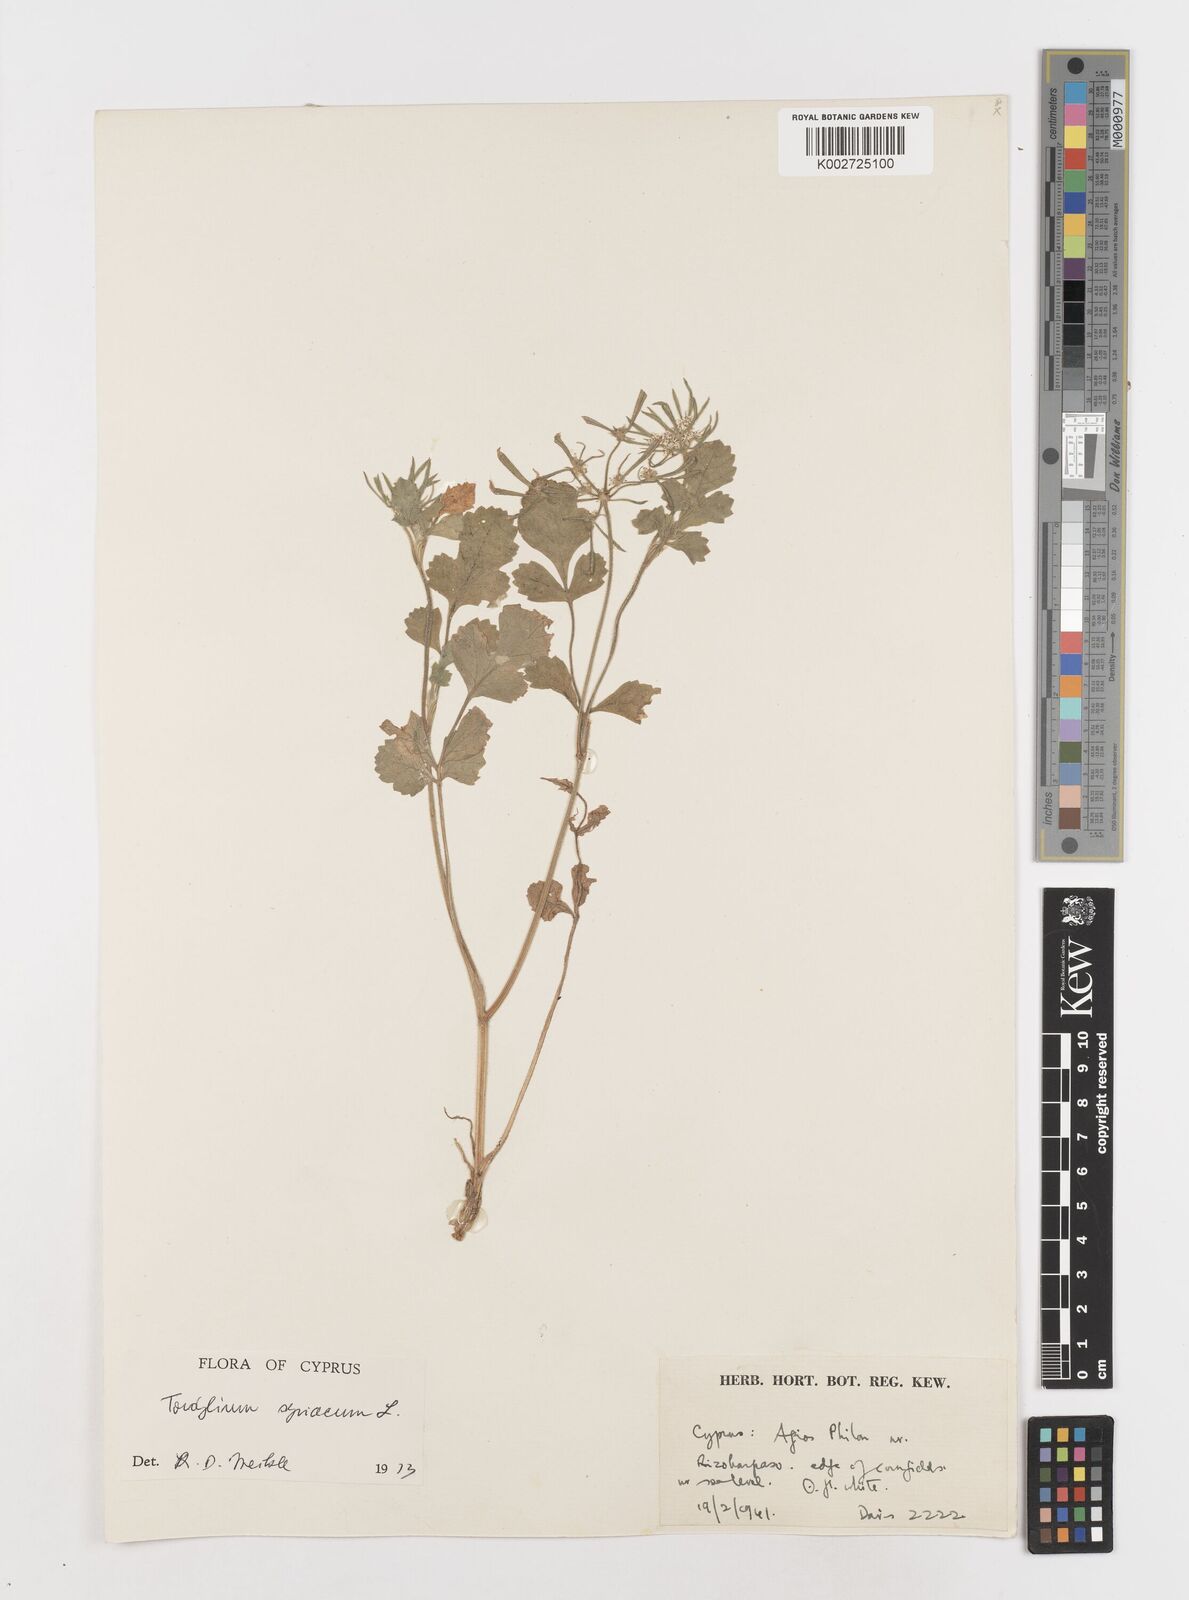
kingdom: Plantae
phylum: Tracheophyta
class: Magnoliopsida
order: Apiales
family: Apiaceae
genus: Tordylium
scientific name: Tordylium syriacum
